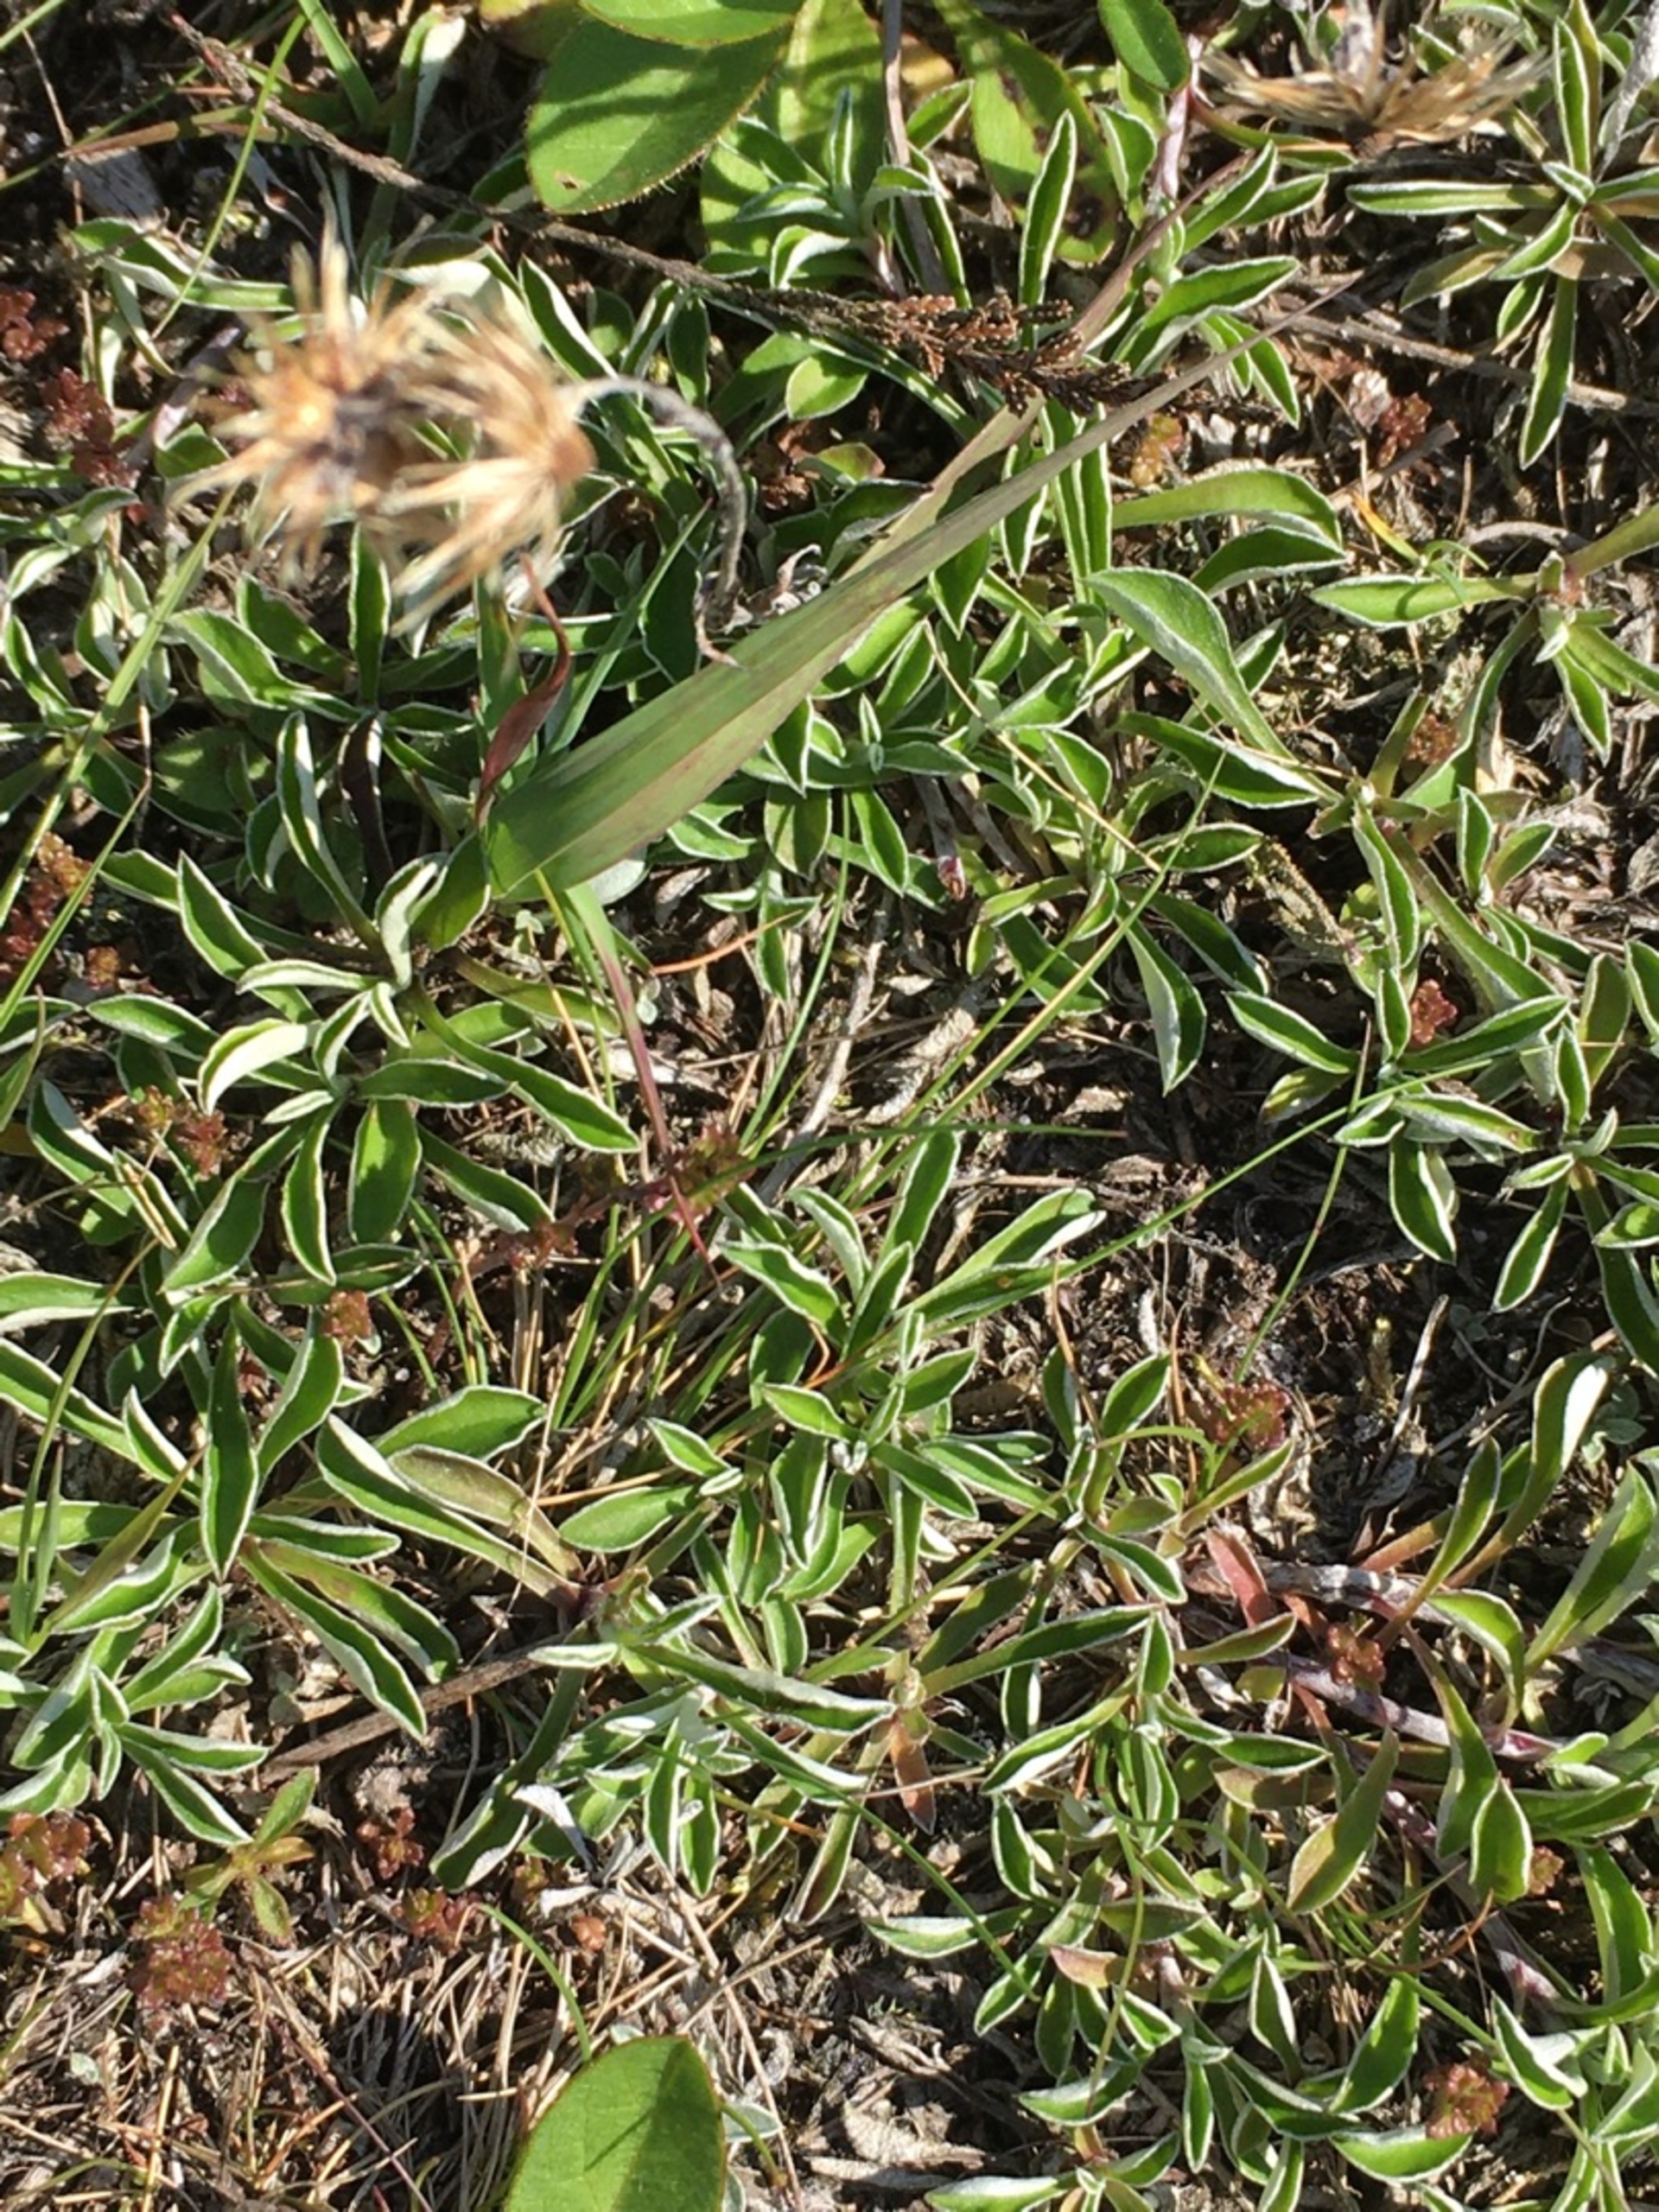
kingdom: Plantae
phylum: Tracheophyta
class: Magnoliopsida
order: Asterales
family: Asteraceae
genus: Antennaria
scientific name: Antennaria dioica
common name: Kattefod
